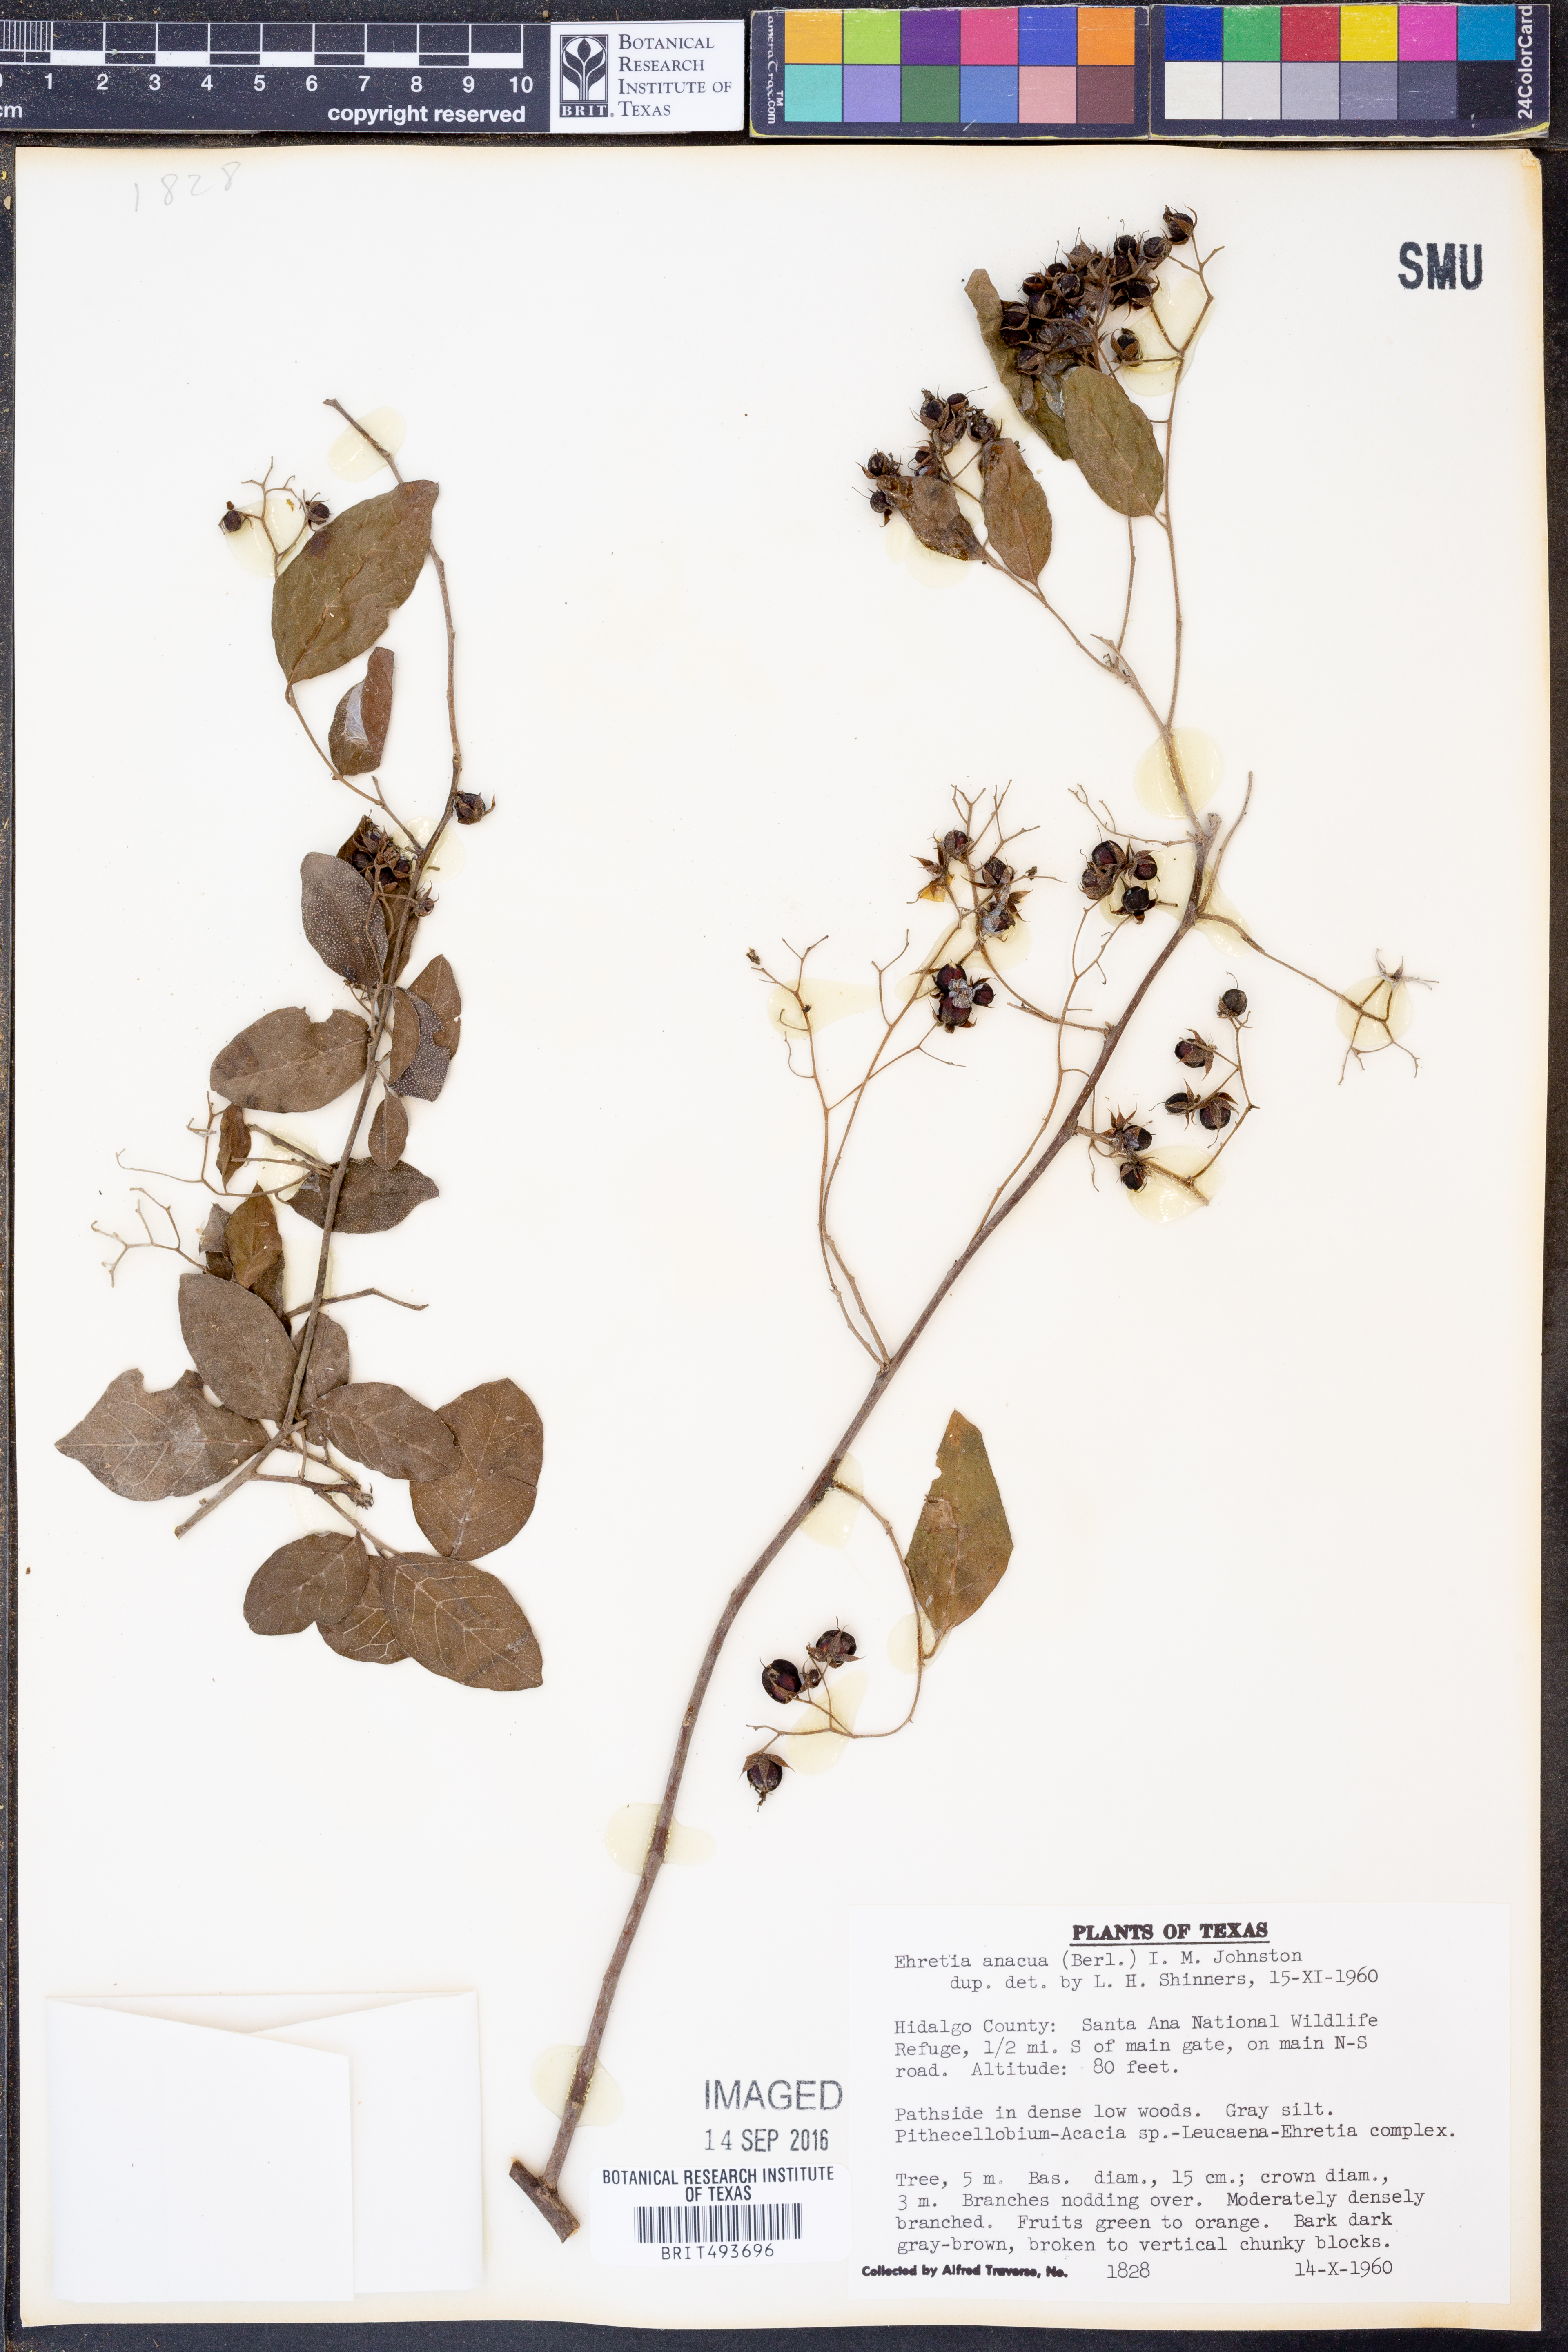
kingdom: Plantae
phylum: Tracheophyta
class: Magnoliopsida
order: Boraginales
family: Ehretiaceae
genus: Ehretia
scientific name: Ehretia anacua
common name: Sugarberry
